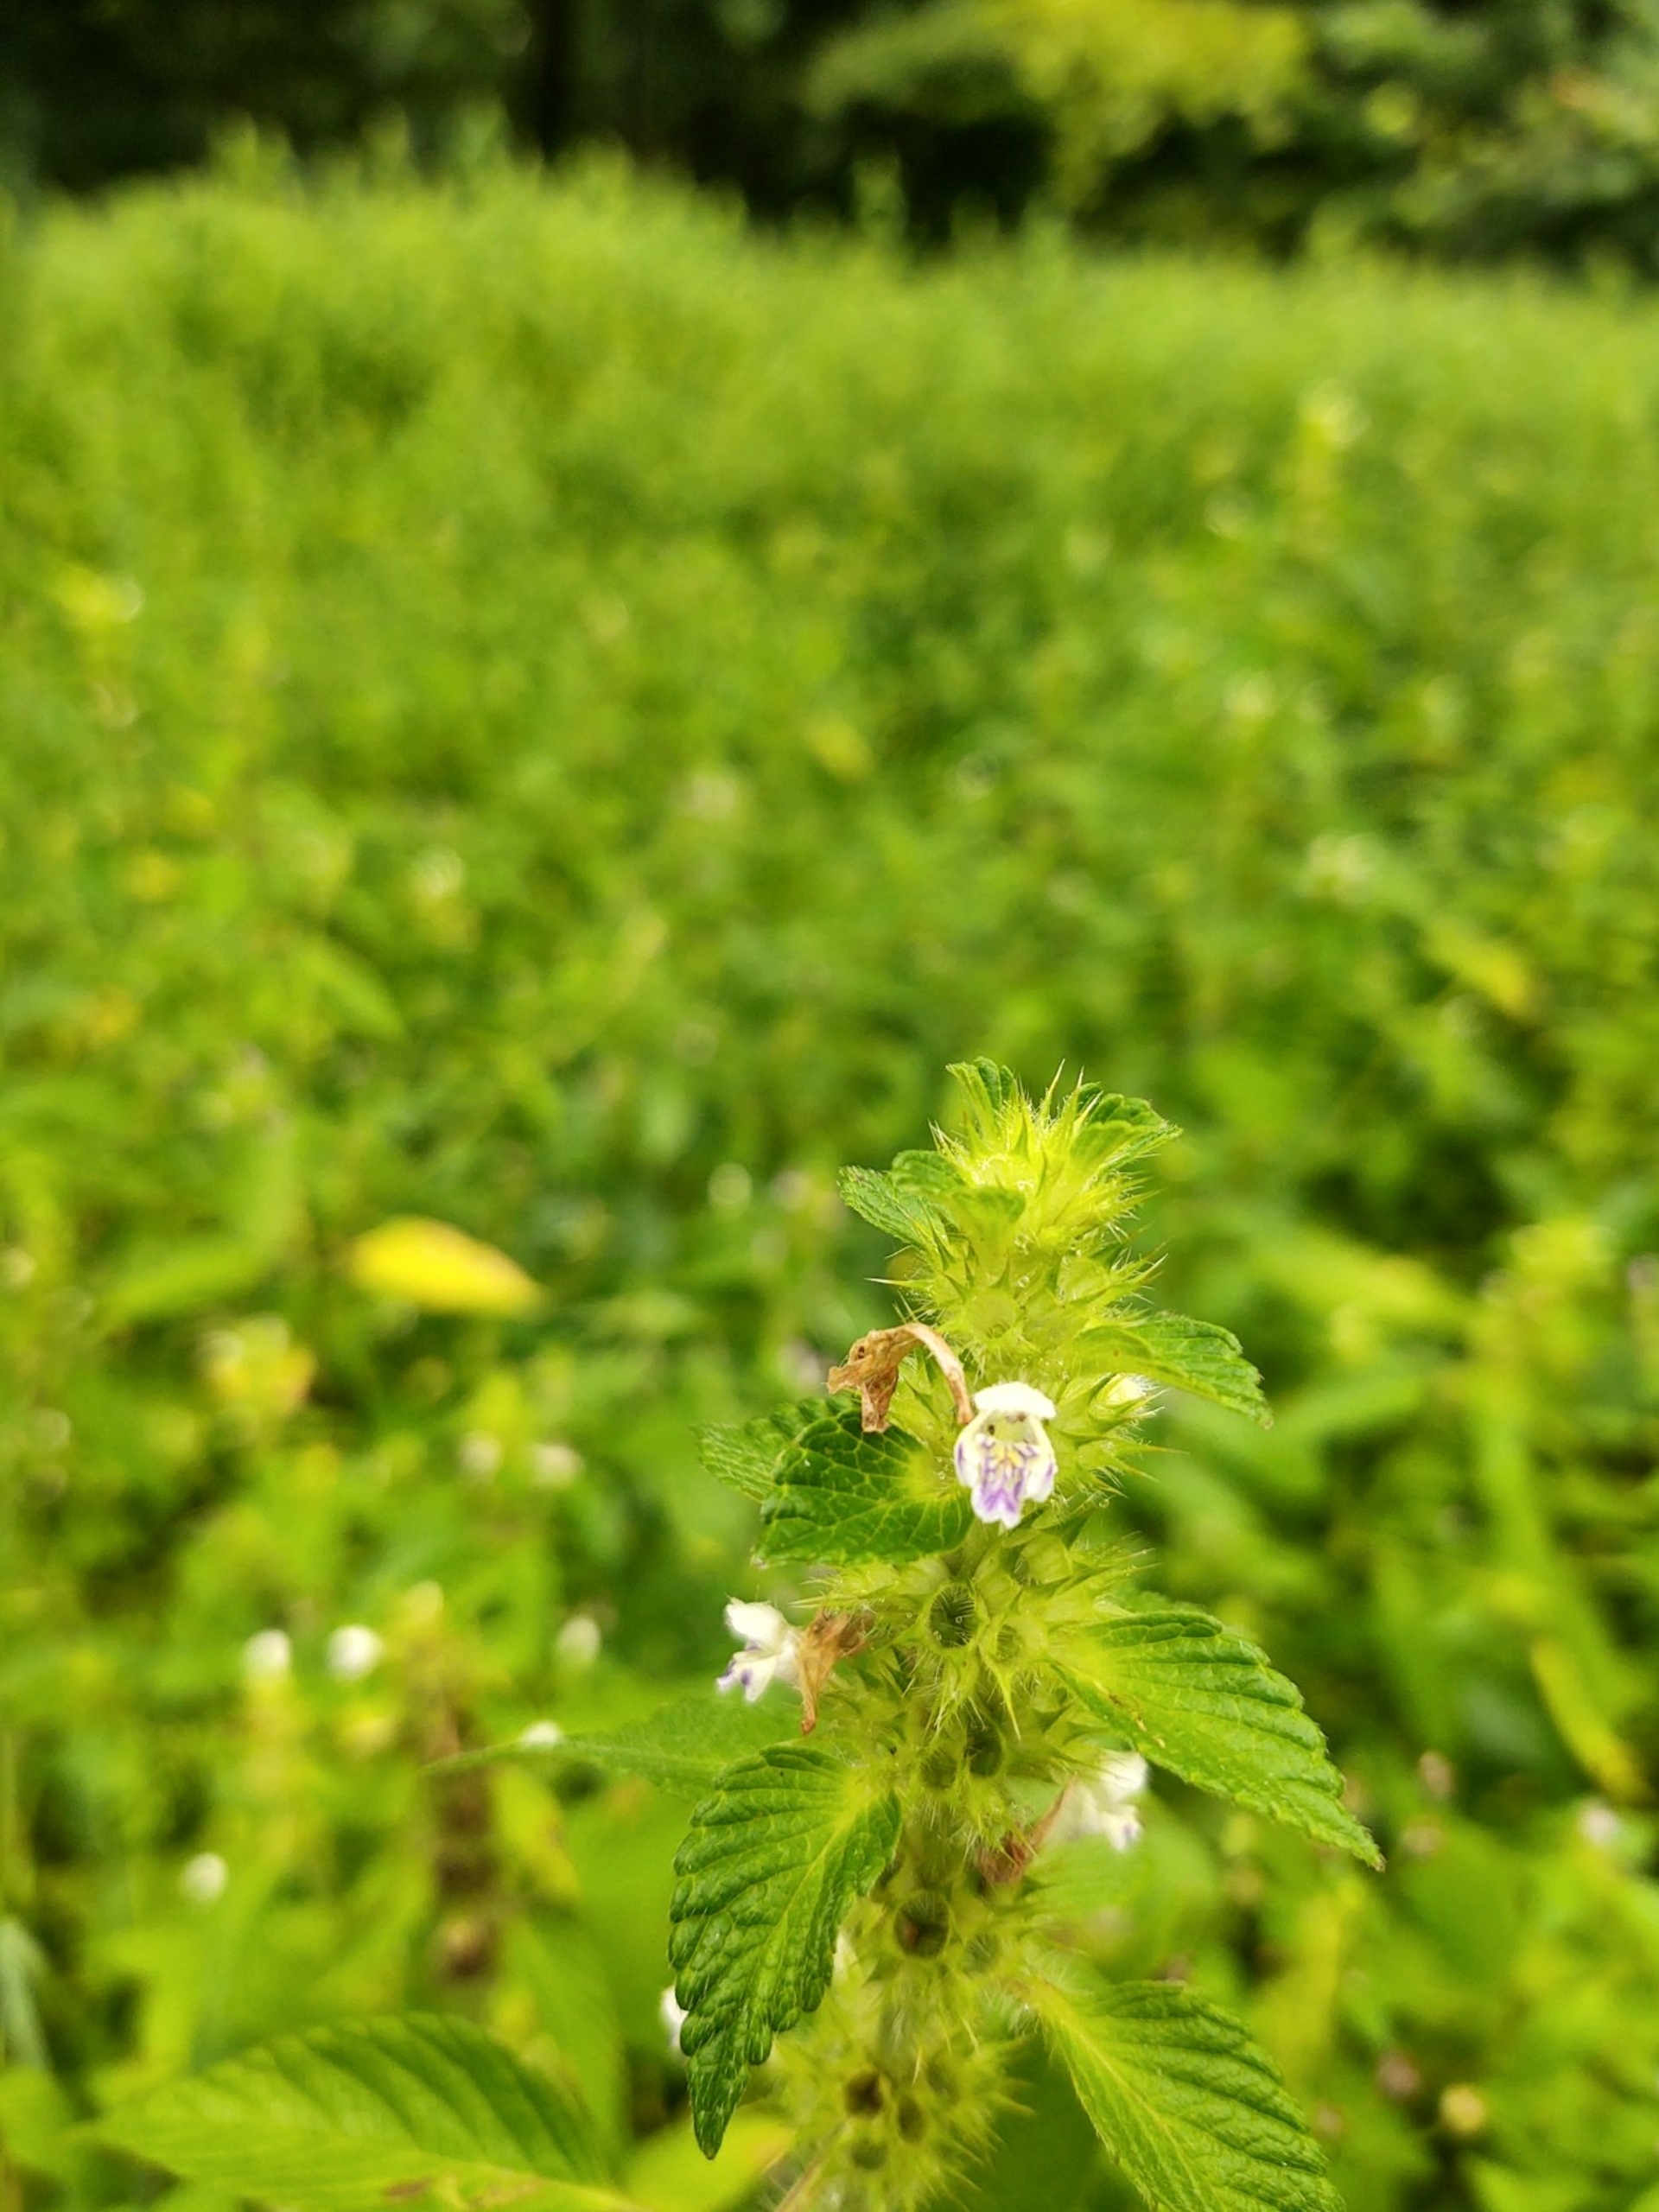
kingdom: Plantae
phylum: Tracheophyta
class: Magnoliopsida
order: Lamiales
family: Lamiaceae
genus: Galeopsis
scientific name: Galeopsis bifida
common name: Skov-hanekro
